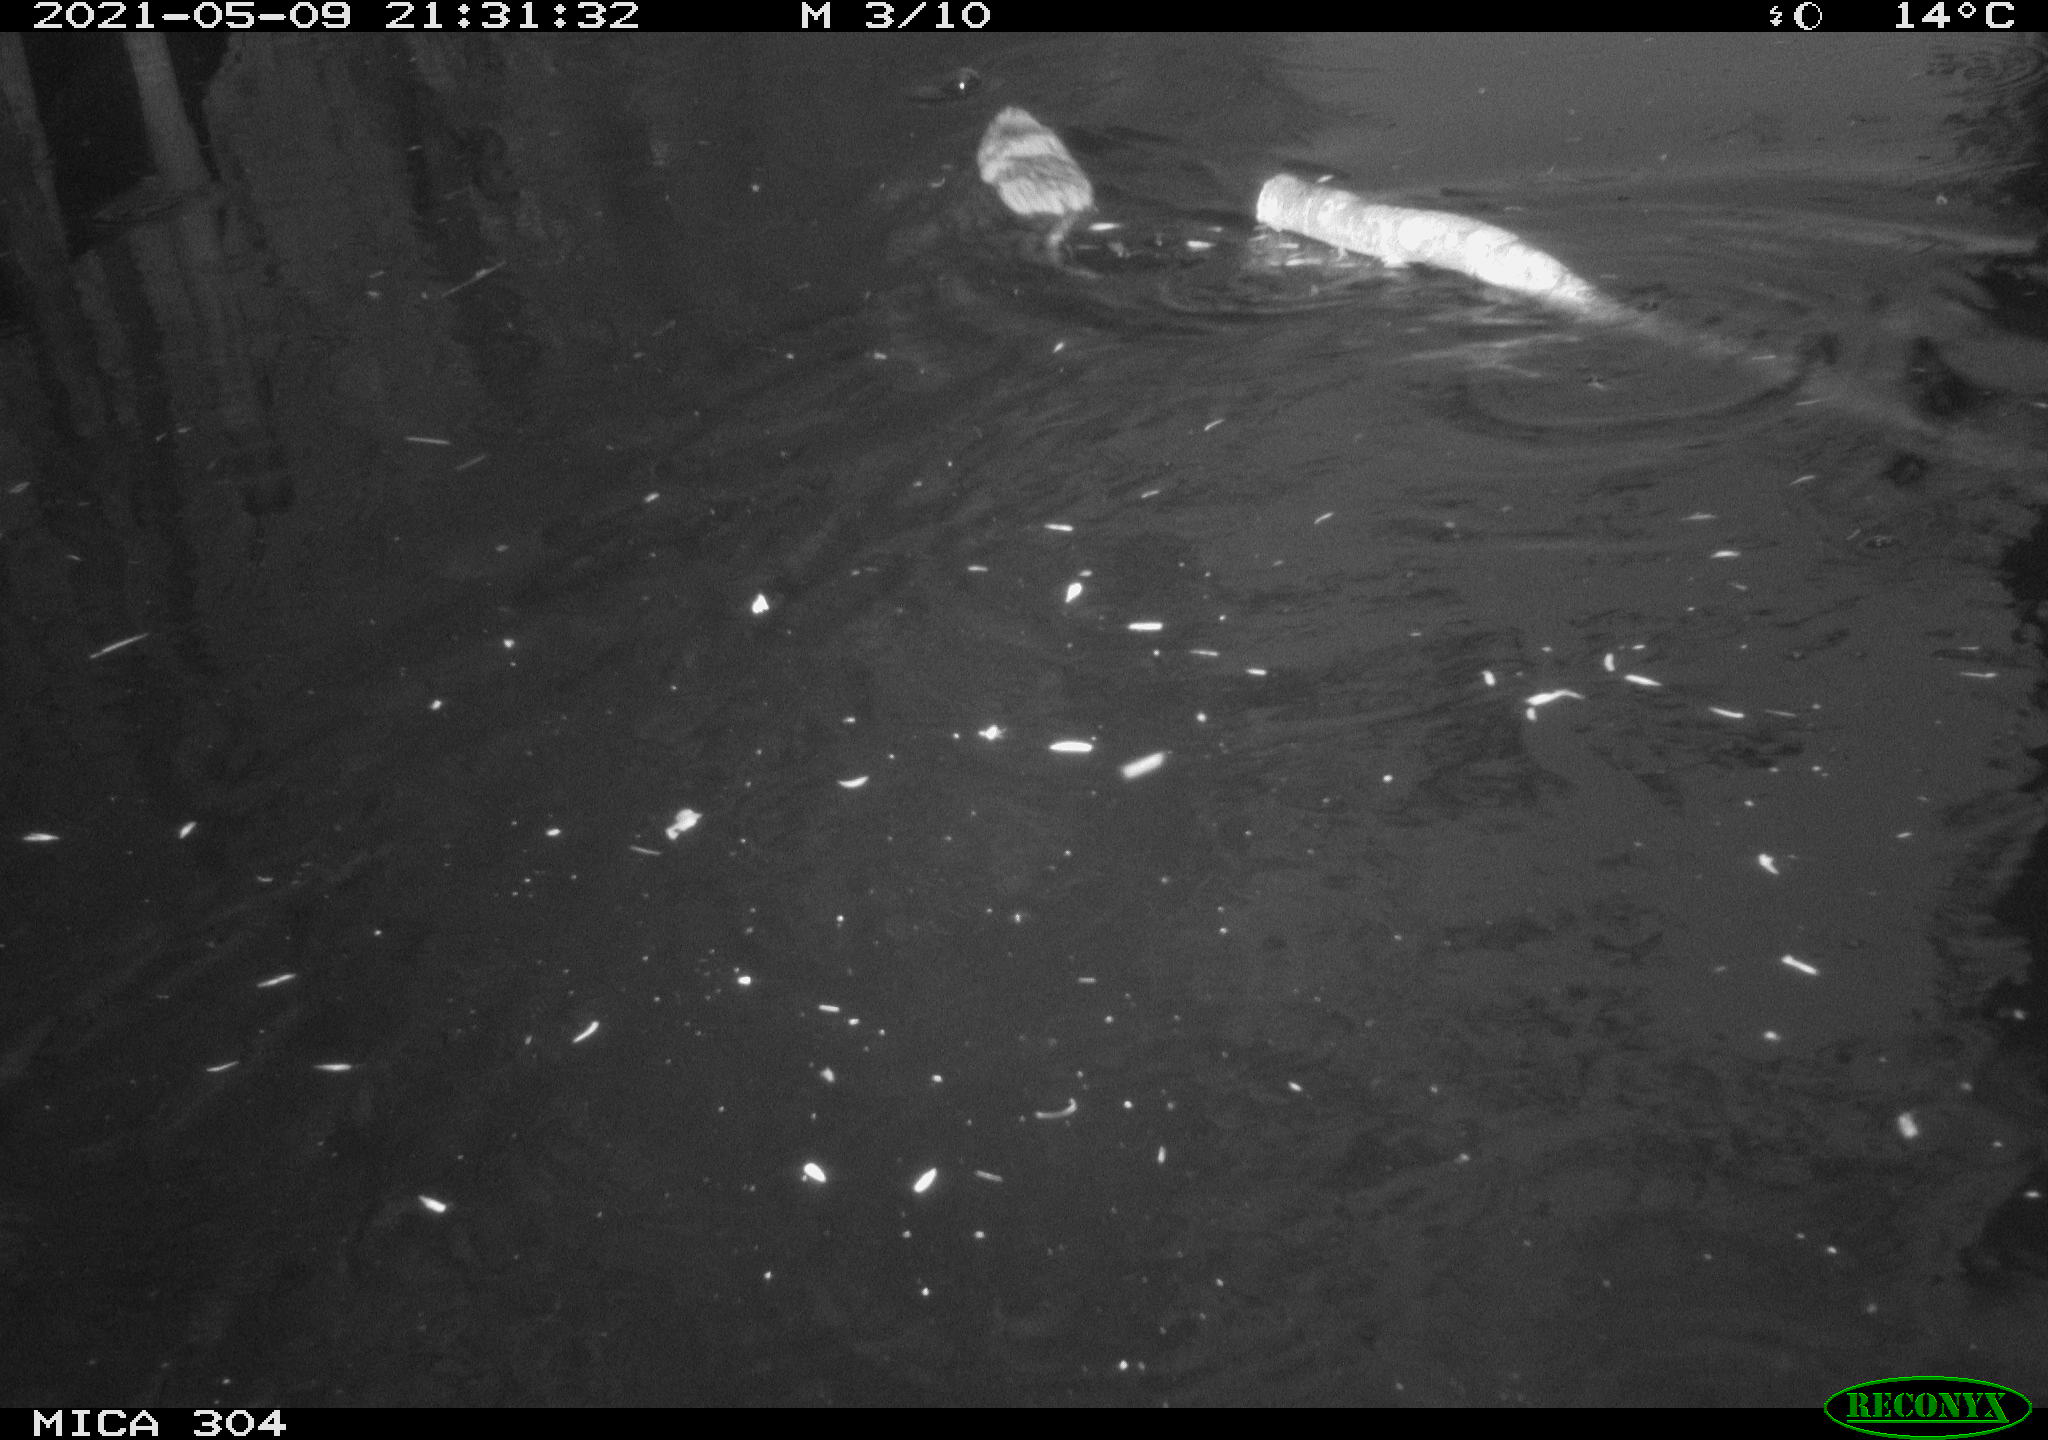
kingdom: Animalia
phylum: Chordata
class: Aves
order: Gruiformes
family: Rallidae
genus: Fulica
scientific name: Fulica atra
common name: Eurasian coot
